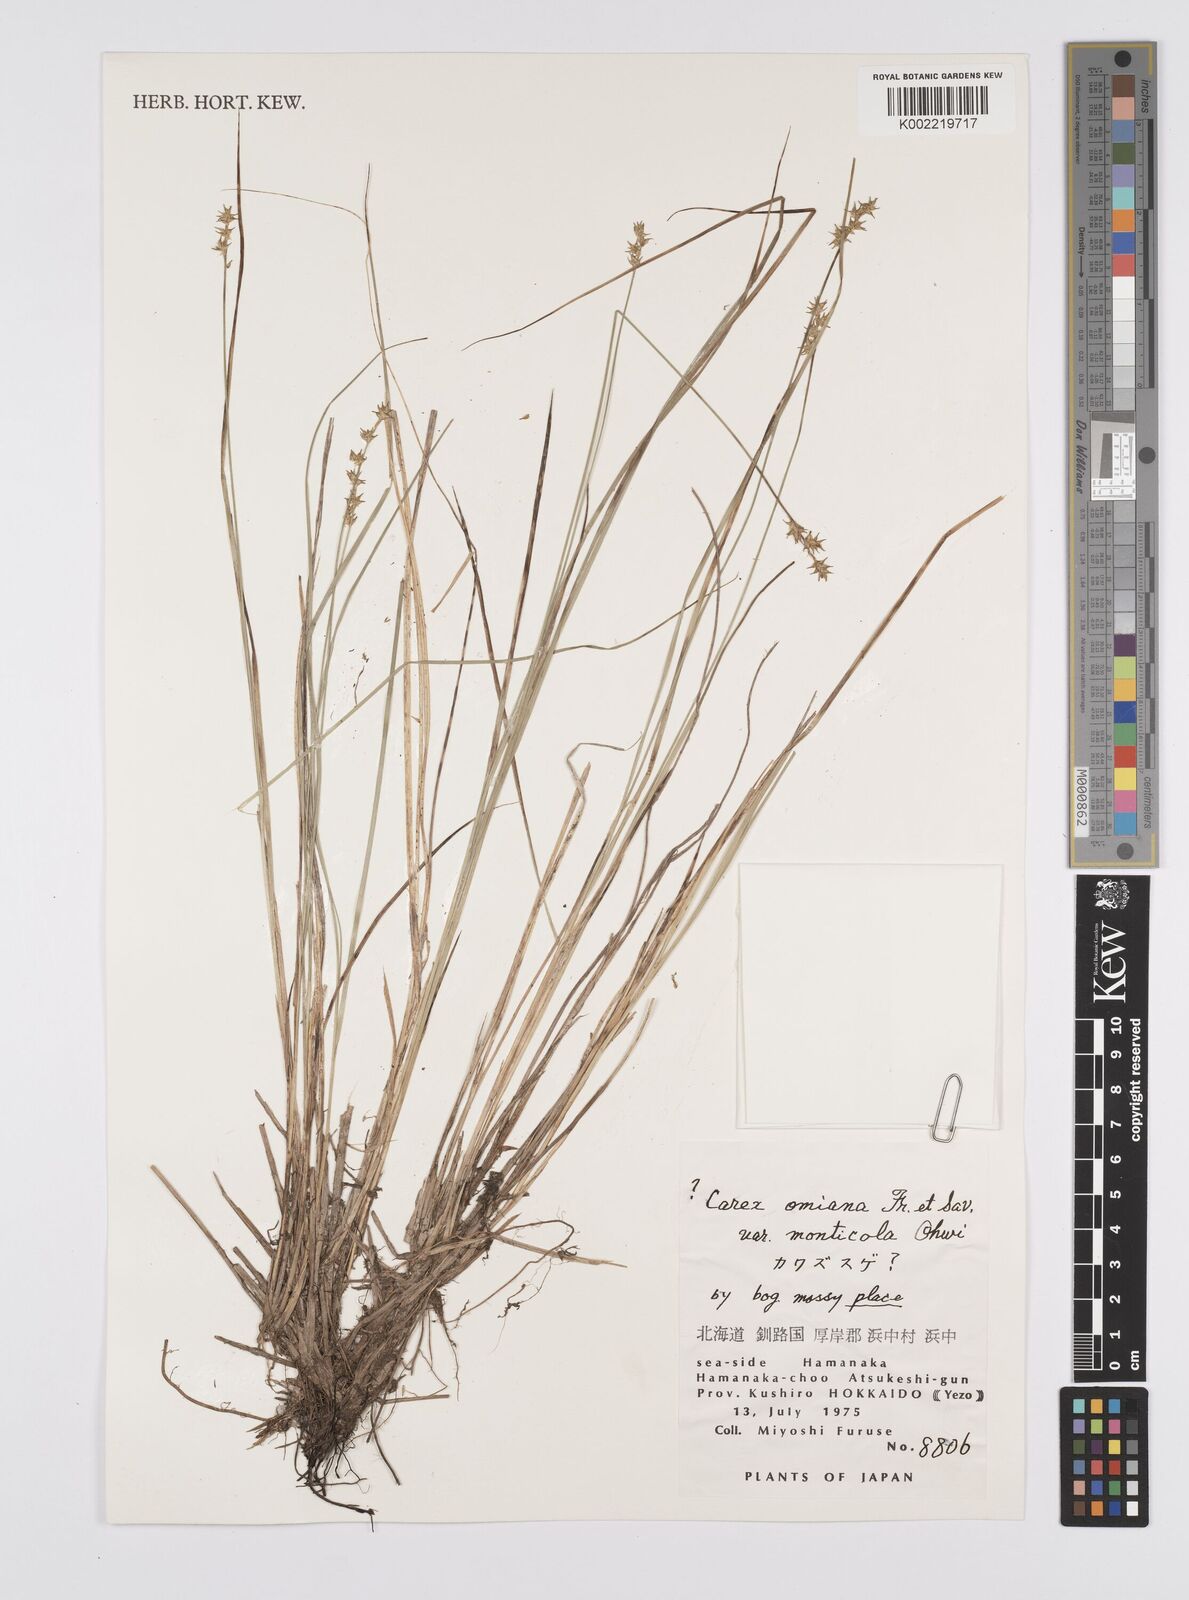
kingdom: Plantae
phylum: Tracheophyta
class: Liliopsida
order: Poales
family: Cyperaceae
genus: Carex
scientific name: Carex omiana
